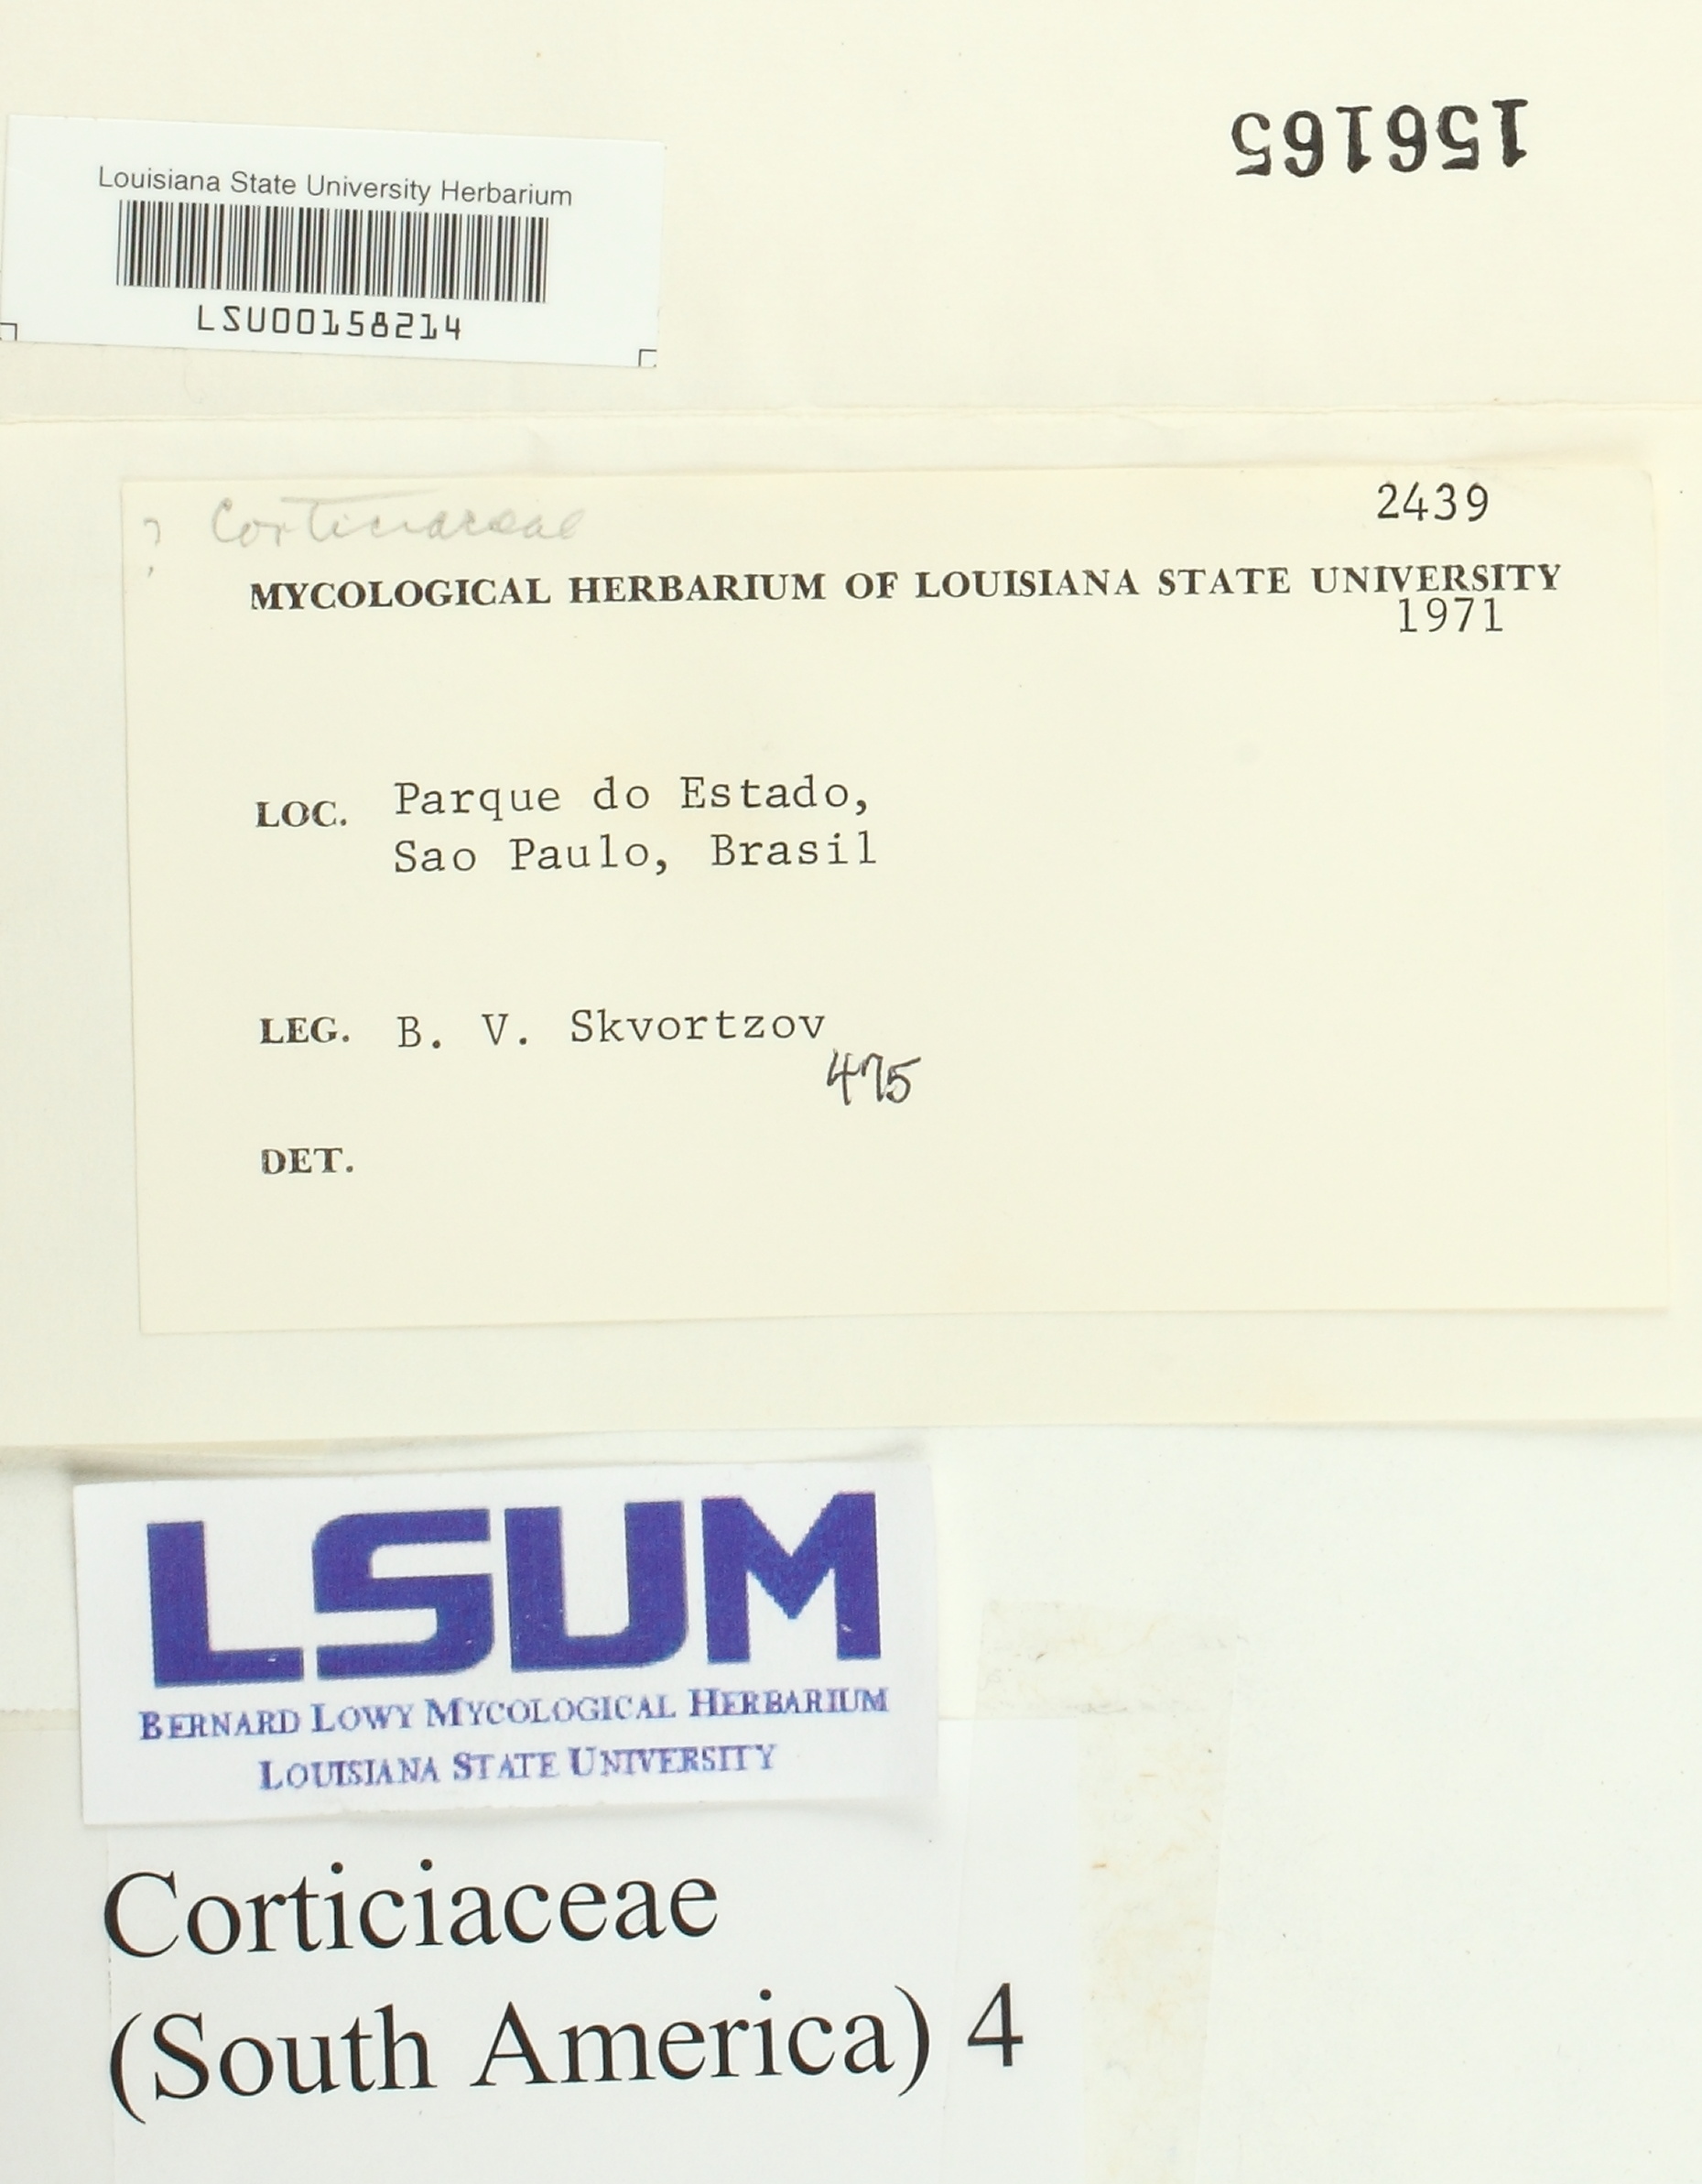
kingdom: Fungi
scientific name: Fungi
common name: Fungi
